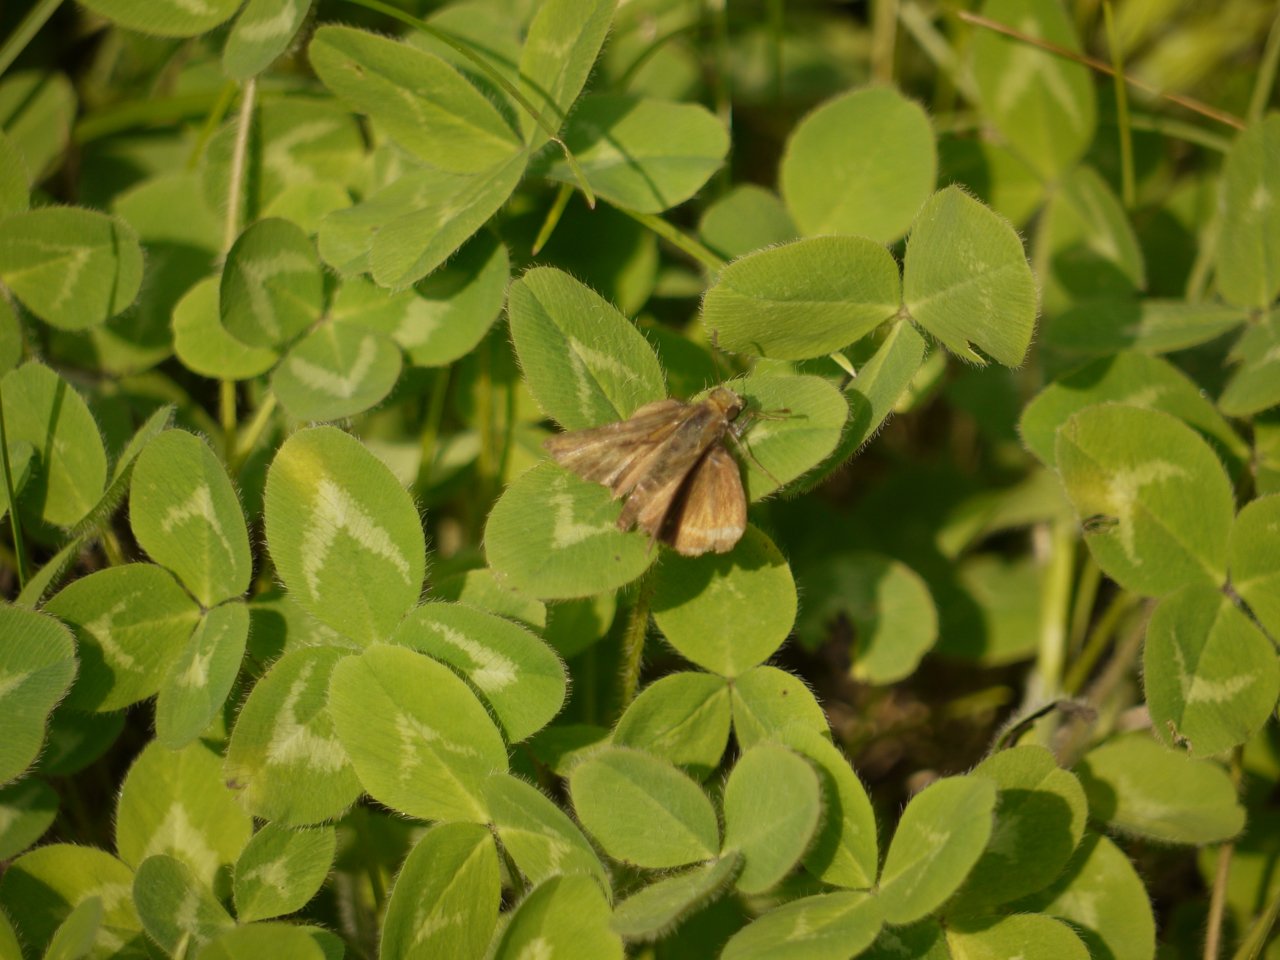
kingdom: Animalia
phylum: Arthropoda
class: Insecta
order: Lepidoptera
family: Hesperiidae
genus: Euphyes
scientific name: Euphyes vestris
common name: Dun Skipper
